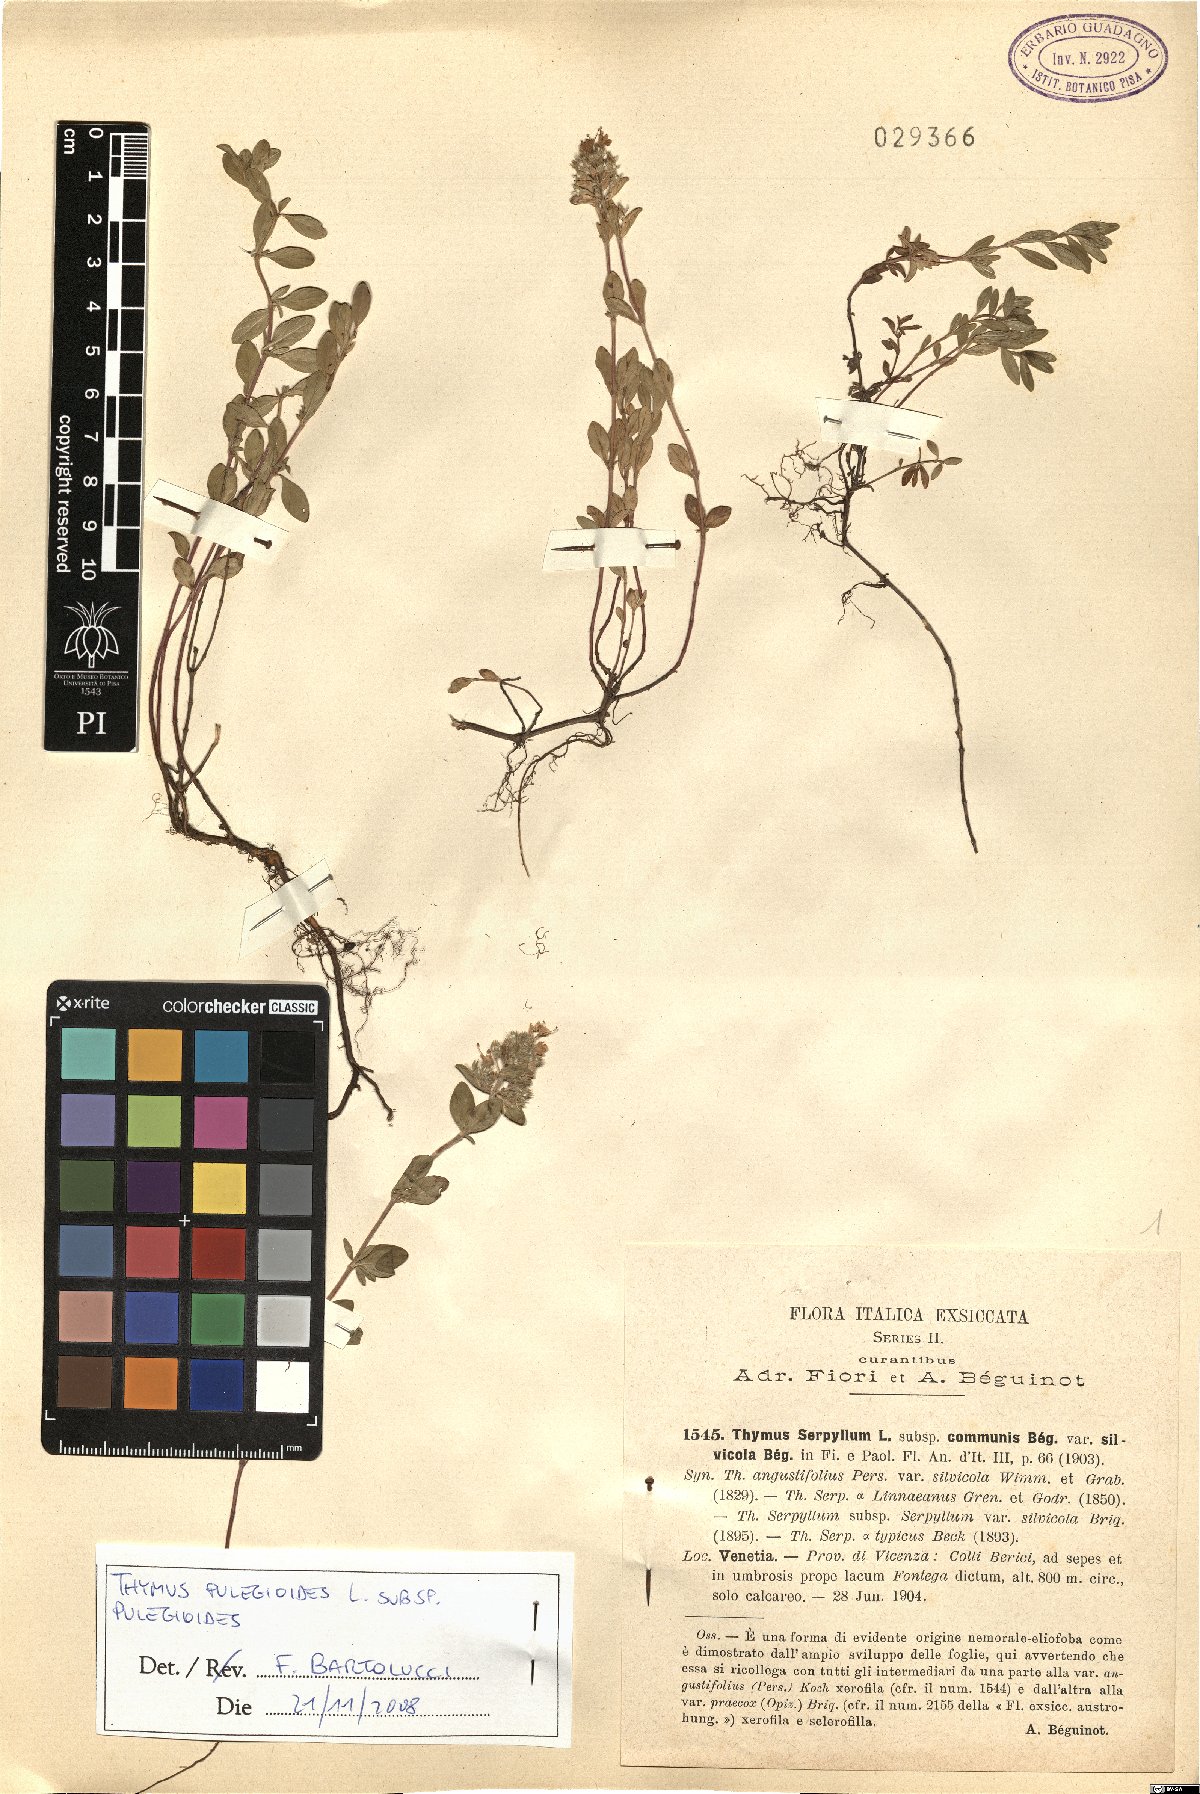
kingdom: Plantae
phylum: Tracheophyta
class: Magnoliopsida
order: Lamiales
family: Lamiaceae
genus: Thymus
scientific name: Thymus pulegioides
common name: Large thyme
